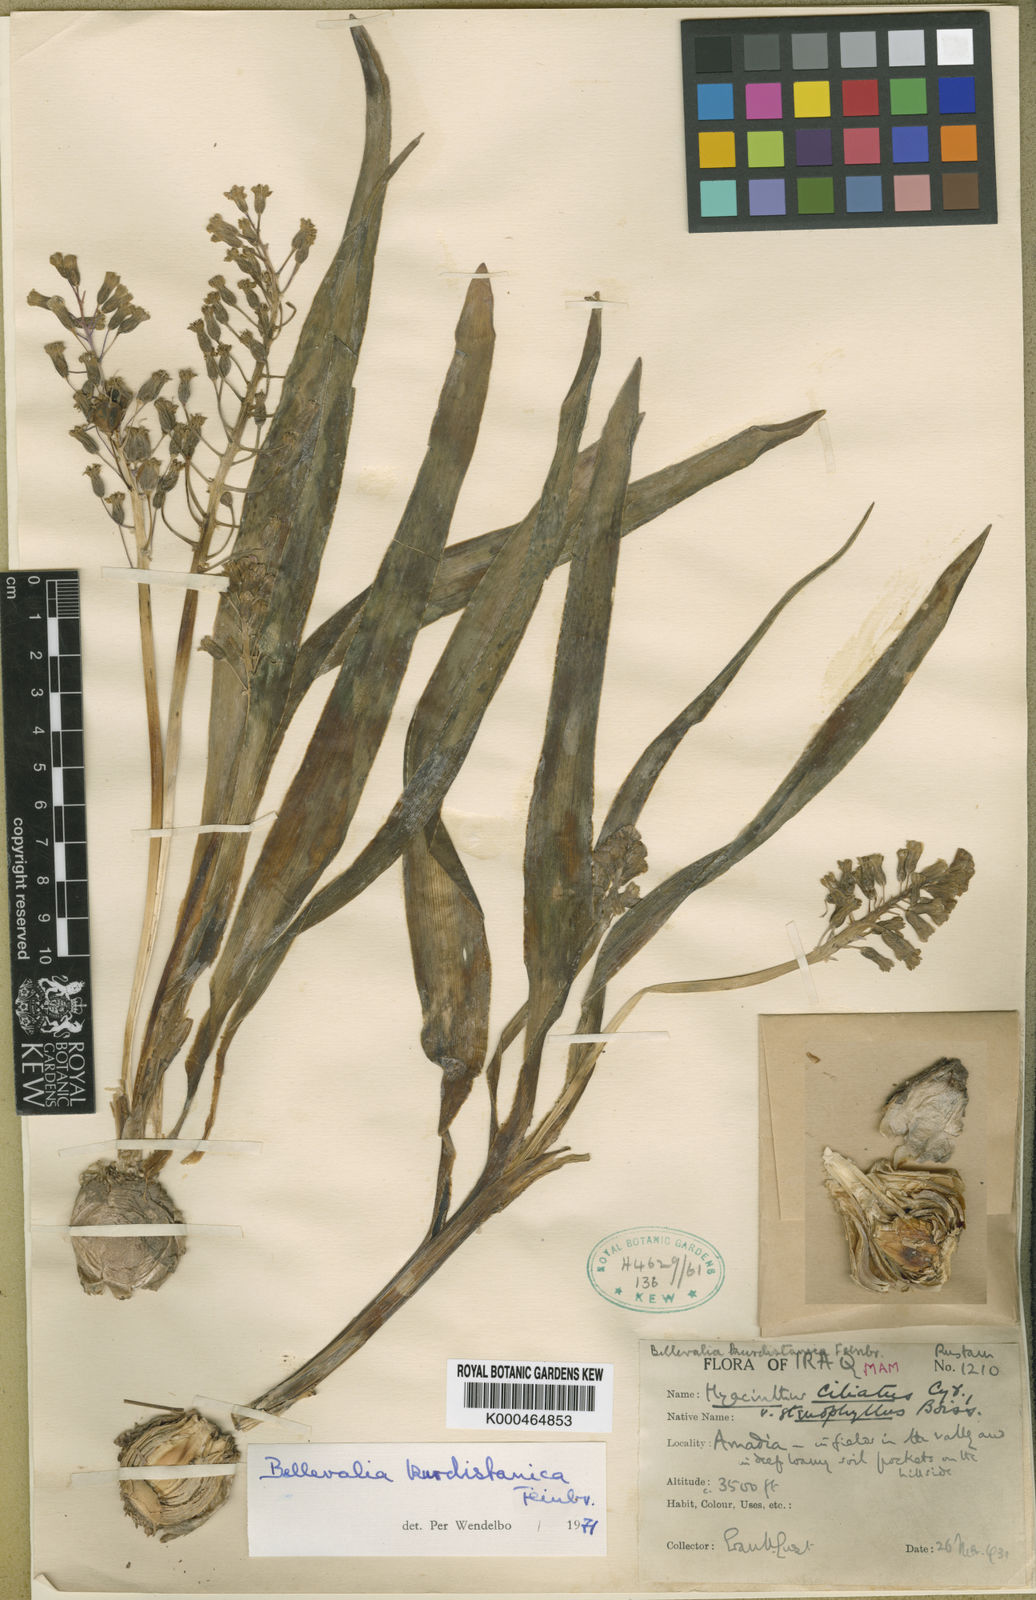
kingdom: Plantae
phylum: Tracheophyta
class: Liliopsida
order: Asparagales
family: Asparagaceae
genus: Bellevalia
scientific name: Bellevalia kurdistanica
